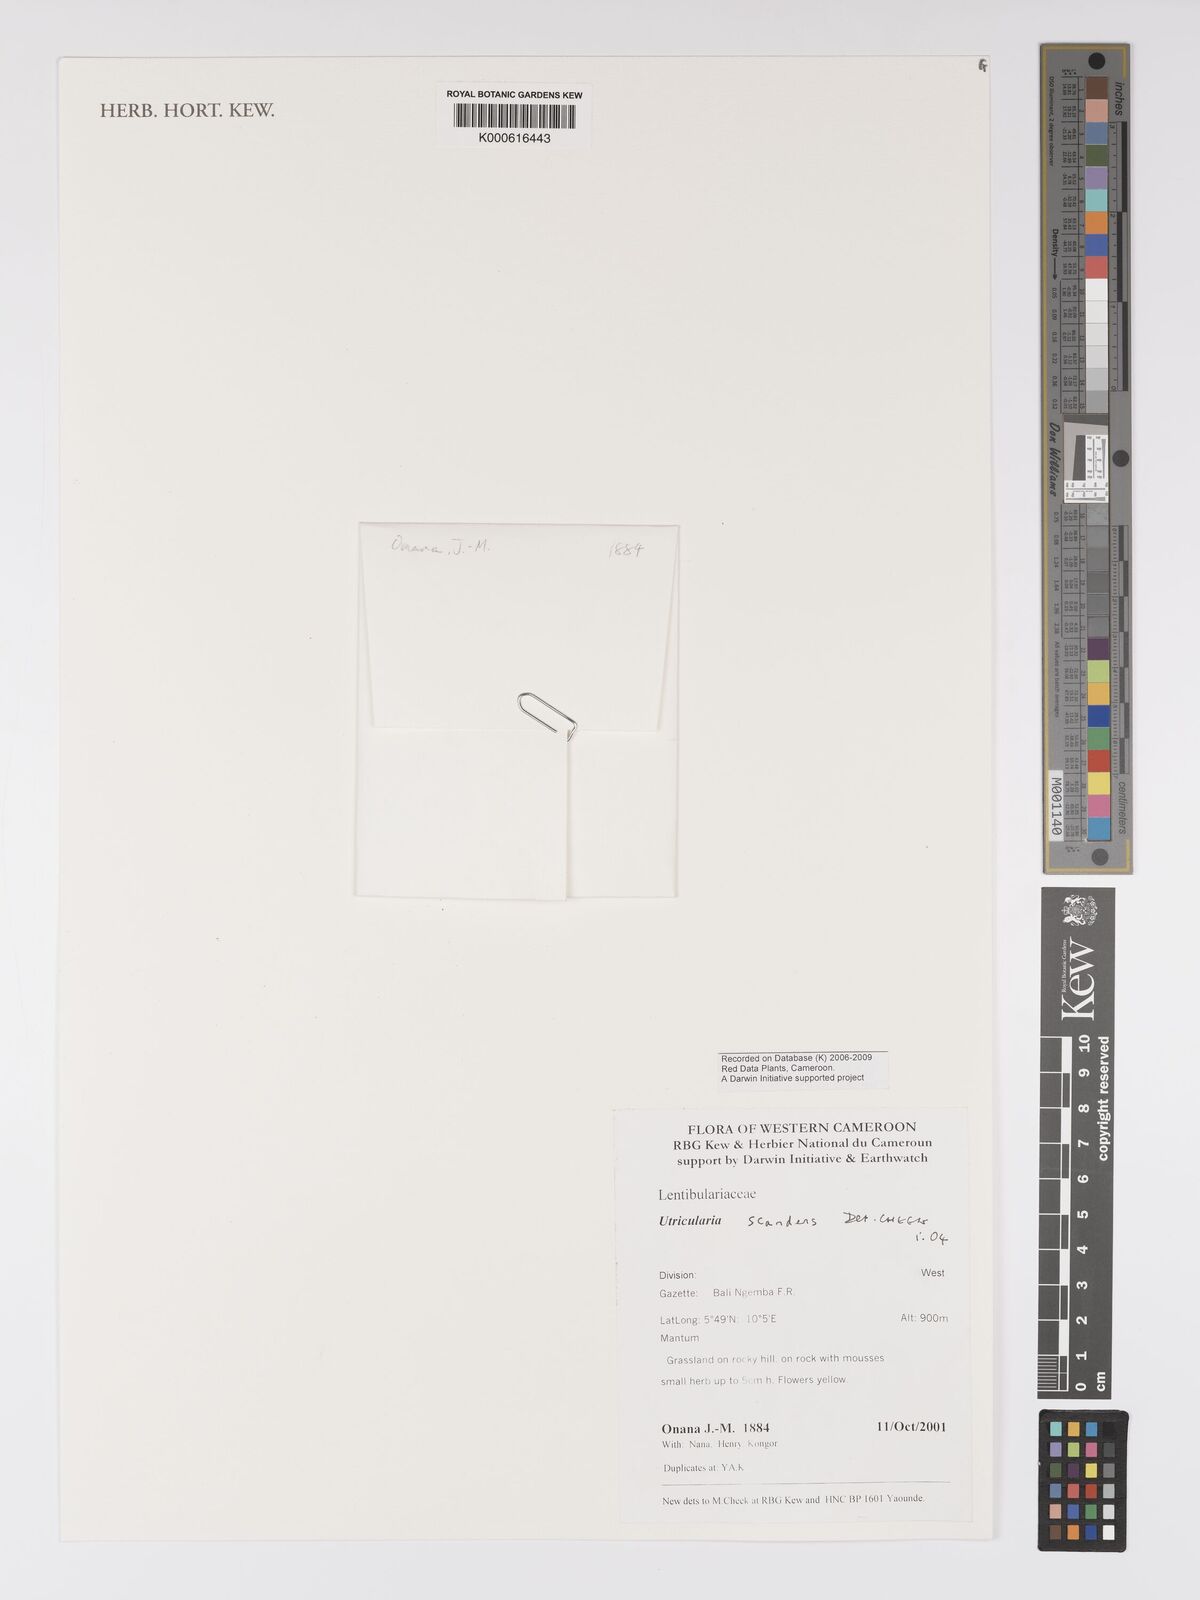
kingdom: Plantae
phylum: Tracheophyta
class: Magnoliopsida
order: Lamiales
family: Lentibulariaceae
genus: Utricularia
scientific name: Utricularia scandens
